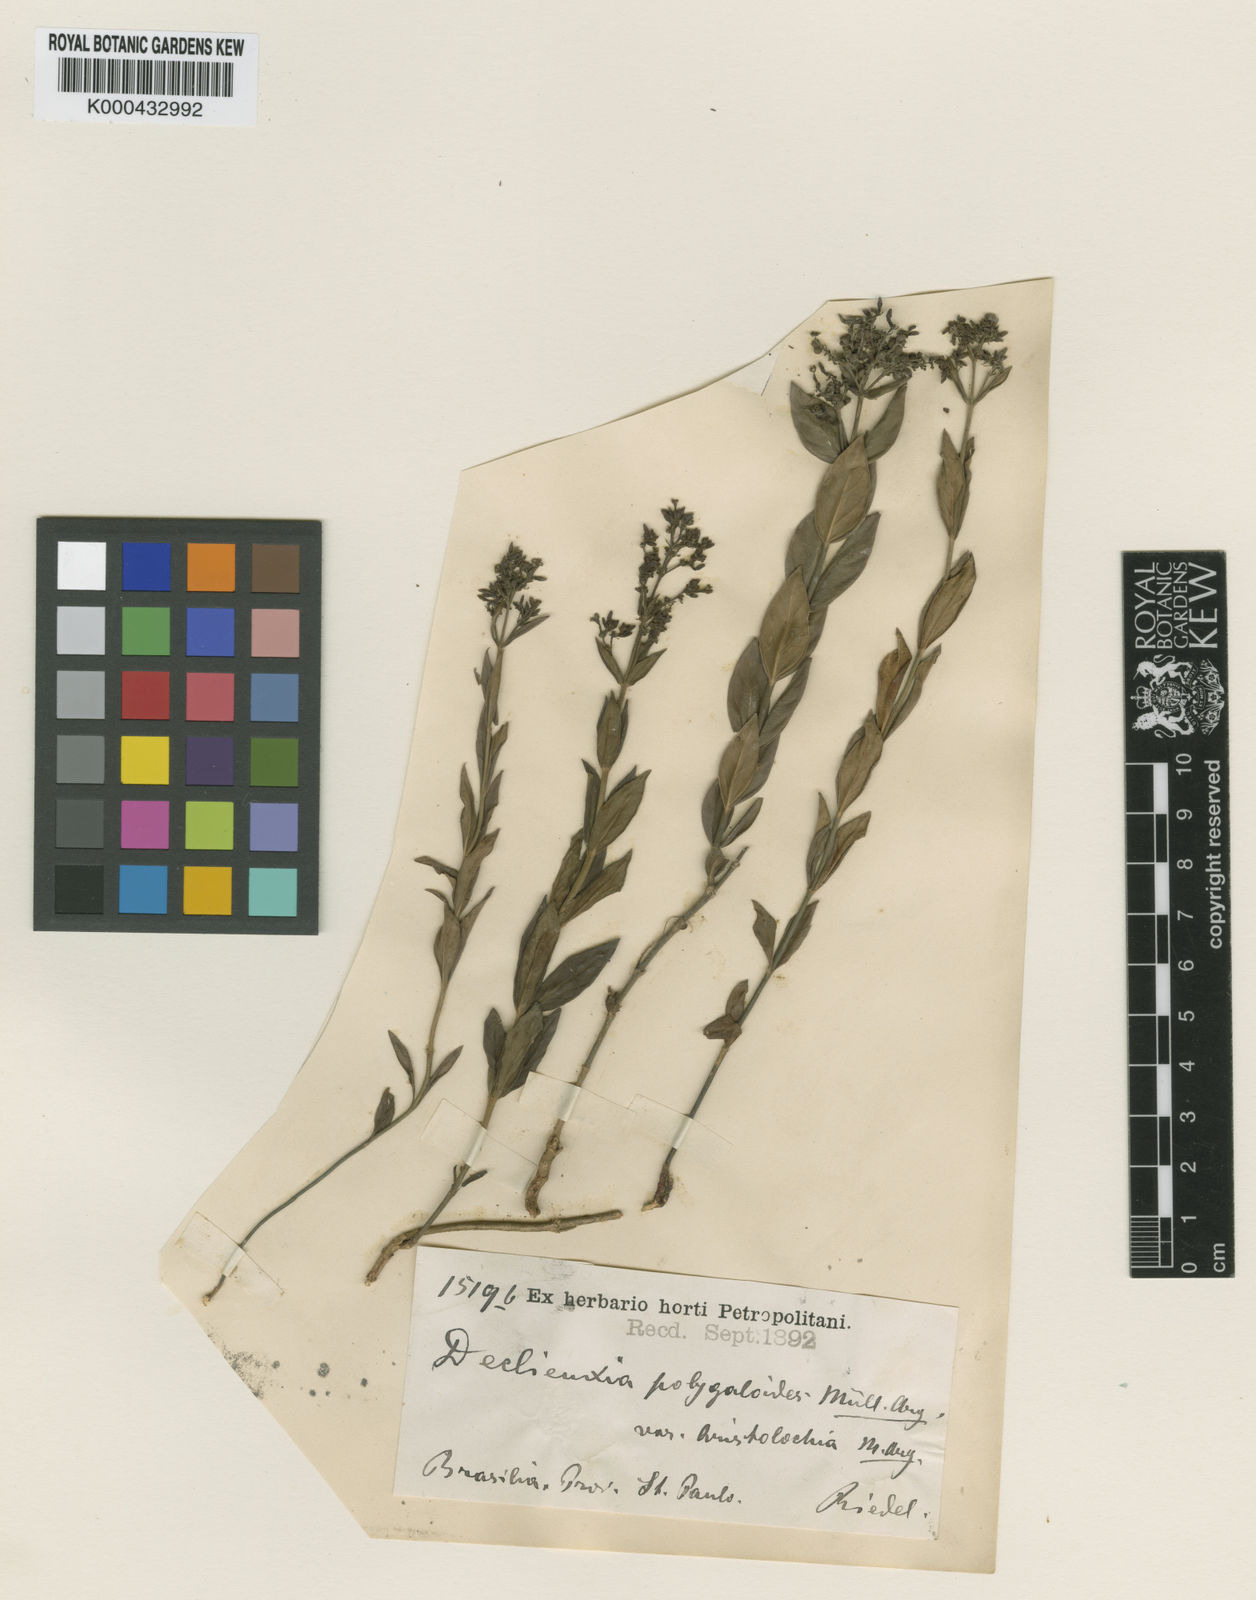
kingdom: Plantae
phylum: Tracheophyta
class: Magnoliopsida
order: Gentianales
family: Rubiaceae
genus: Declieuxia
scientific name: Declieuxia
